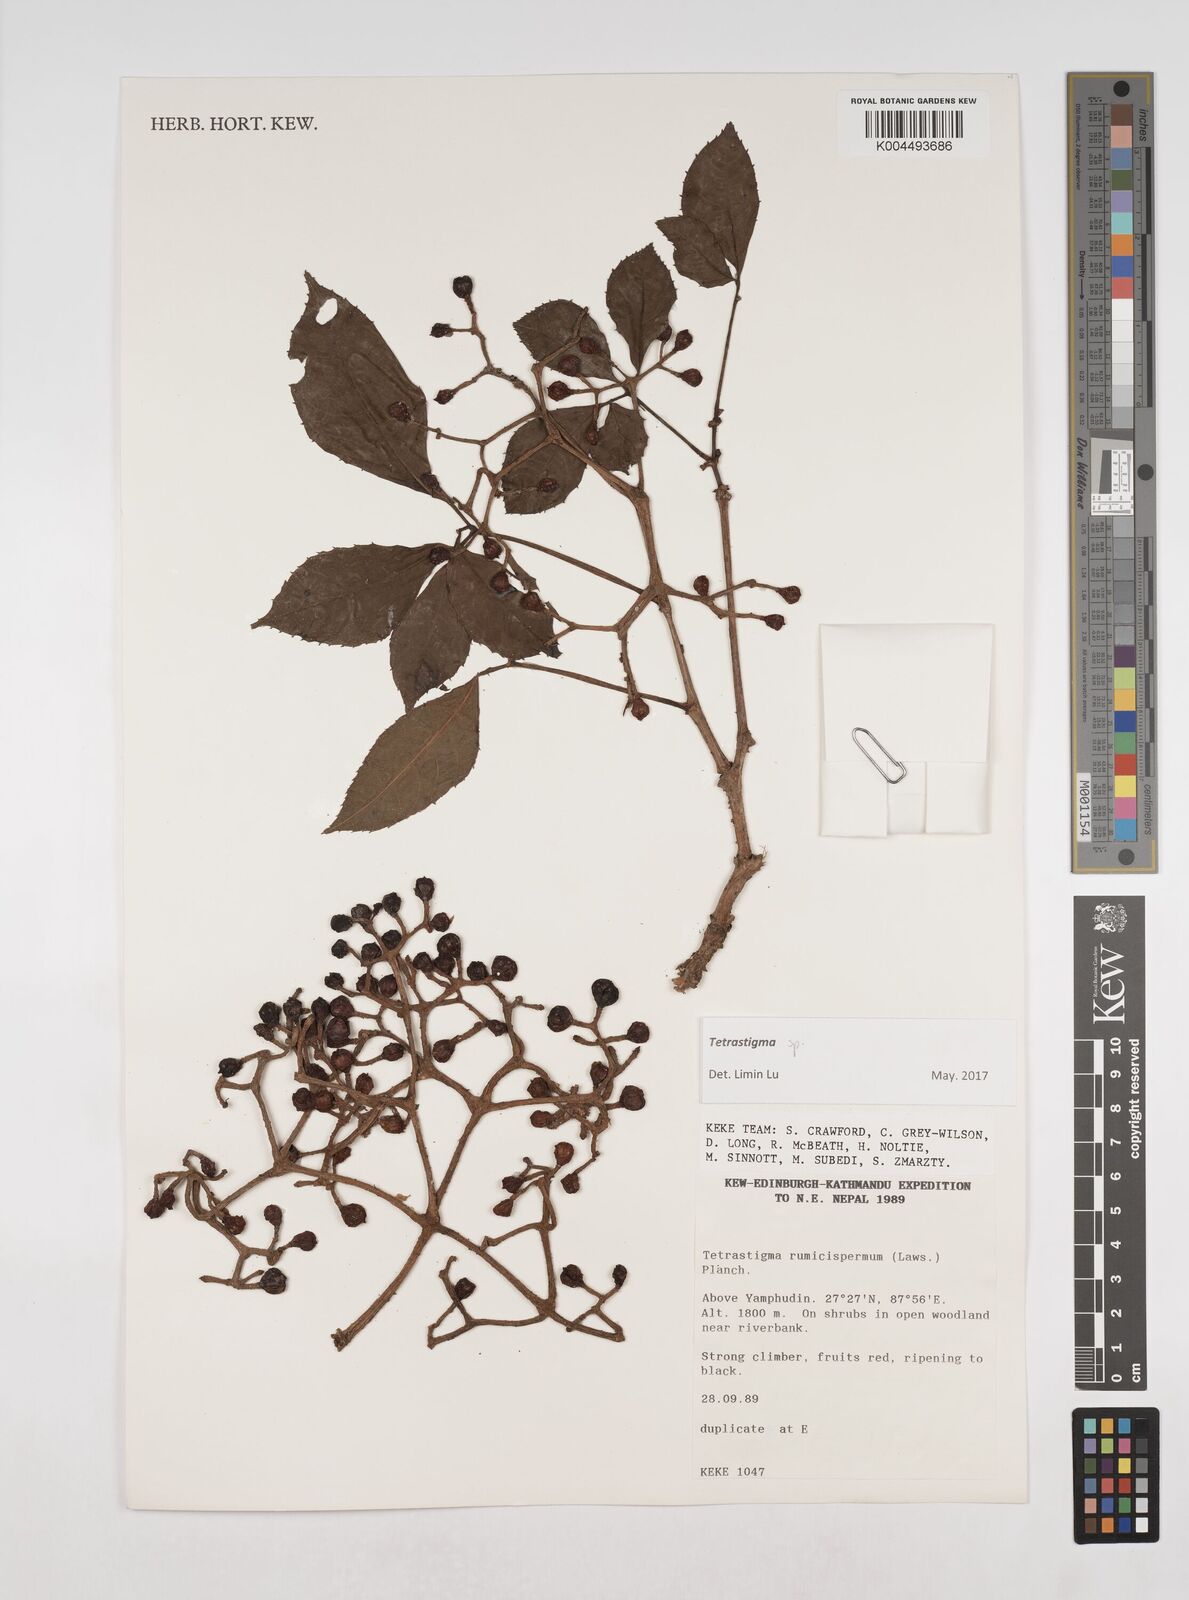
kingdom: Plantae
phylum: Tracheophyta
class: Magnoliopsida
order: Vitales
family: Vitaceae
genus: Tetrastigma
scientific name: Tetrastigma
